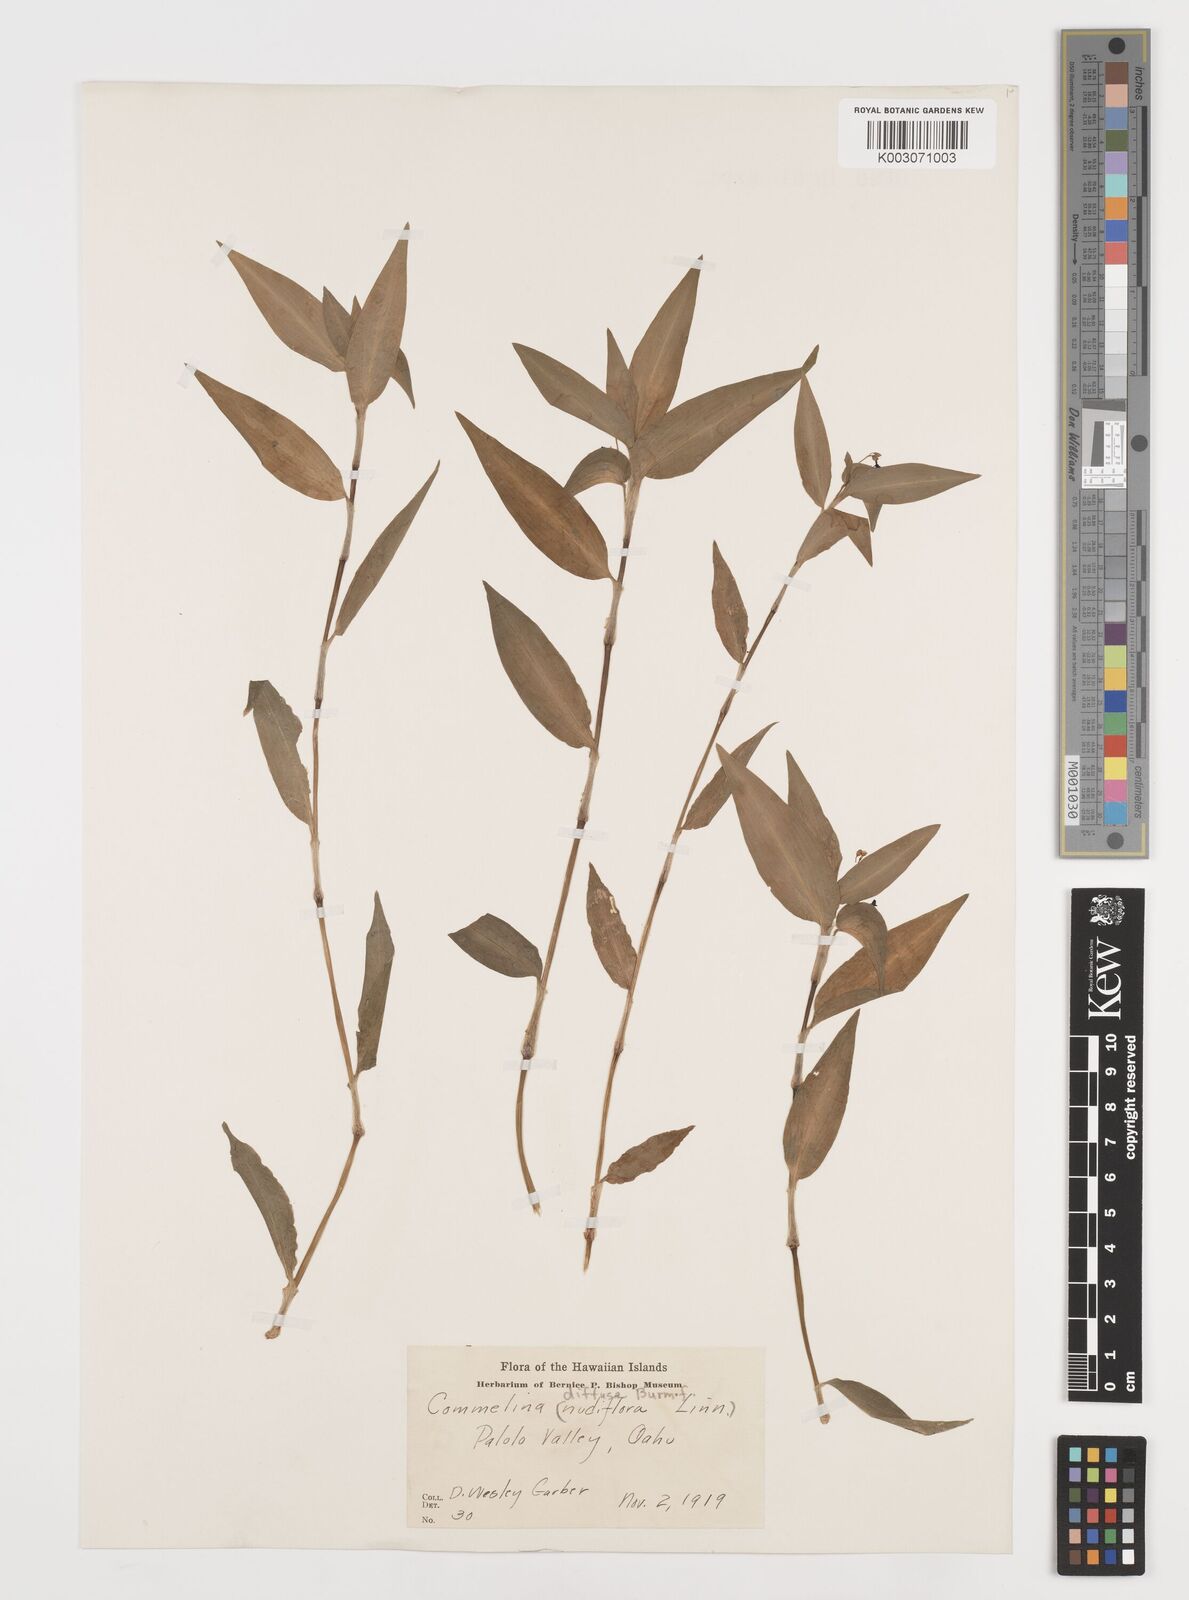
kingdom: Plantae
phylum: Tracheophyta
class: Liliopsida
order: Commelinales
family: Commelinaceae
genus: Commelina
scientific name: Commelina diffusa
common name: Climbing dayflower
